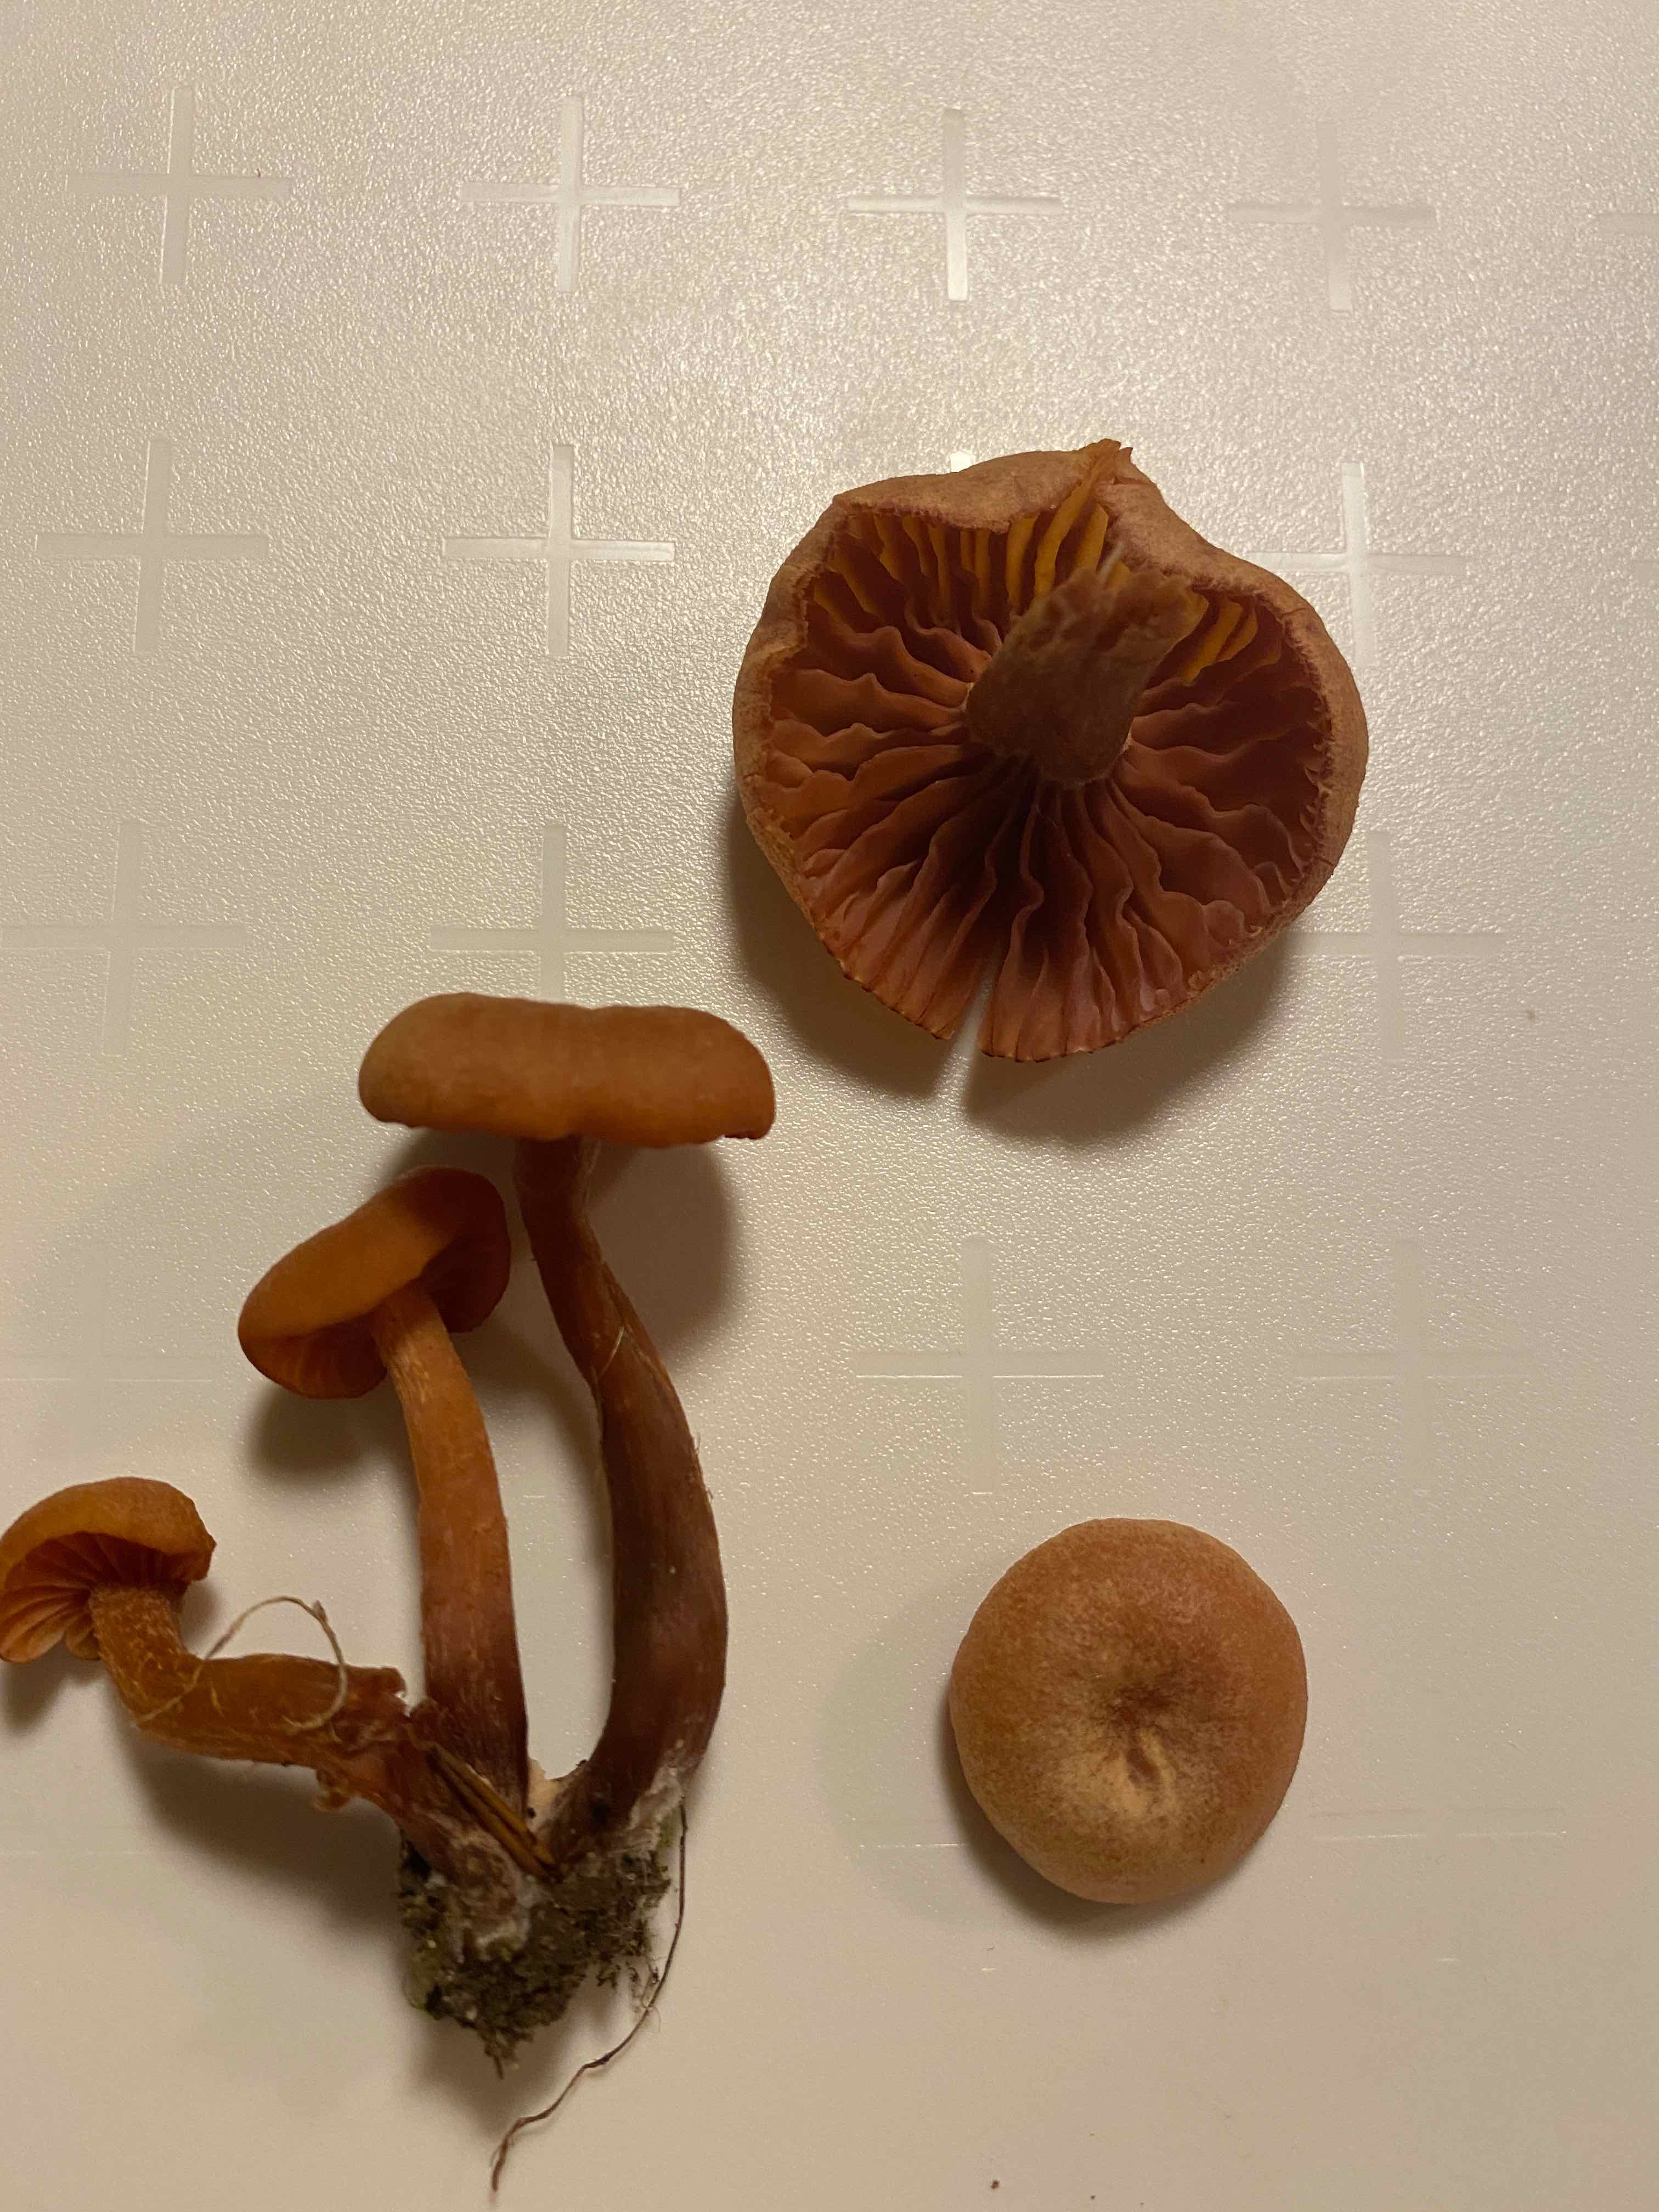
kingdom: Fungi
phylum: Basidiomycota
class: Agaricomycetes
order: Agaricales
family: Hydnangiaceae
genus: Laccaria
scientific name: Laccaria laccata
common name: rød ametysthat
